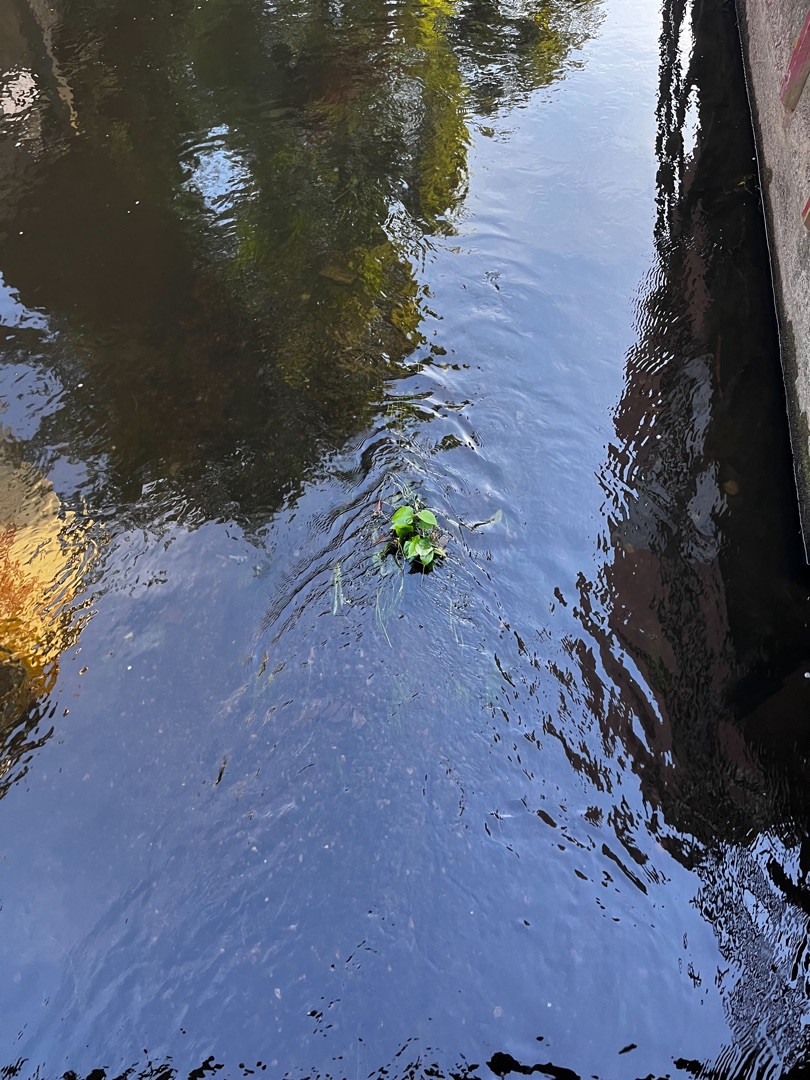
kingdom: Plantae
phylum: Tracheophyta
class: Magnoliopsida
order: Caryophyllales
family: Polygonaceae
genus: Reynoutria
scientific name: Reynoutria japonica
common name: Japan-pileurt
